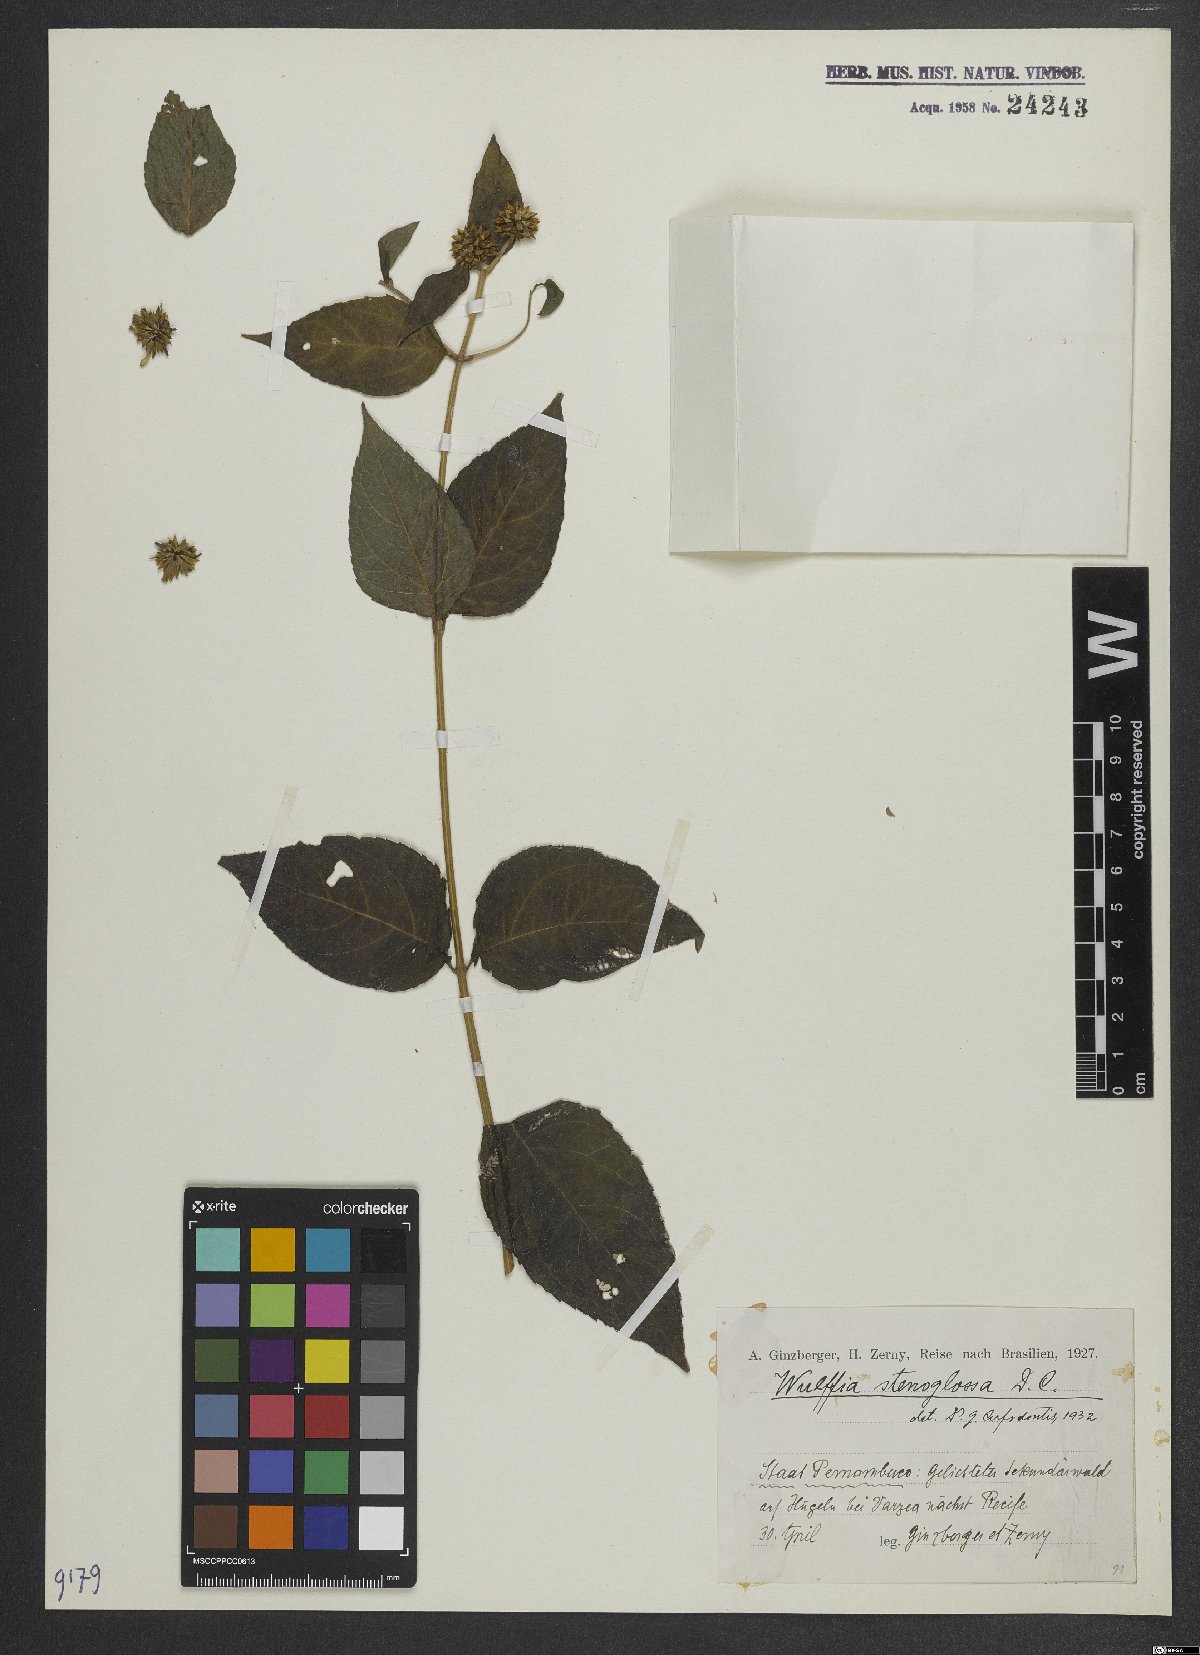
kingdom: Plantae
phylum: Tracheophyta
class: Magnoliopsida
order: Asterales
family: Asteraceae
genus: Tilesia
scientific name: Tilesia baccata
